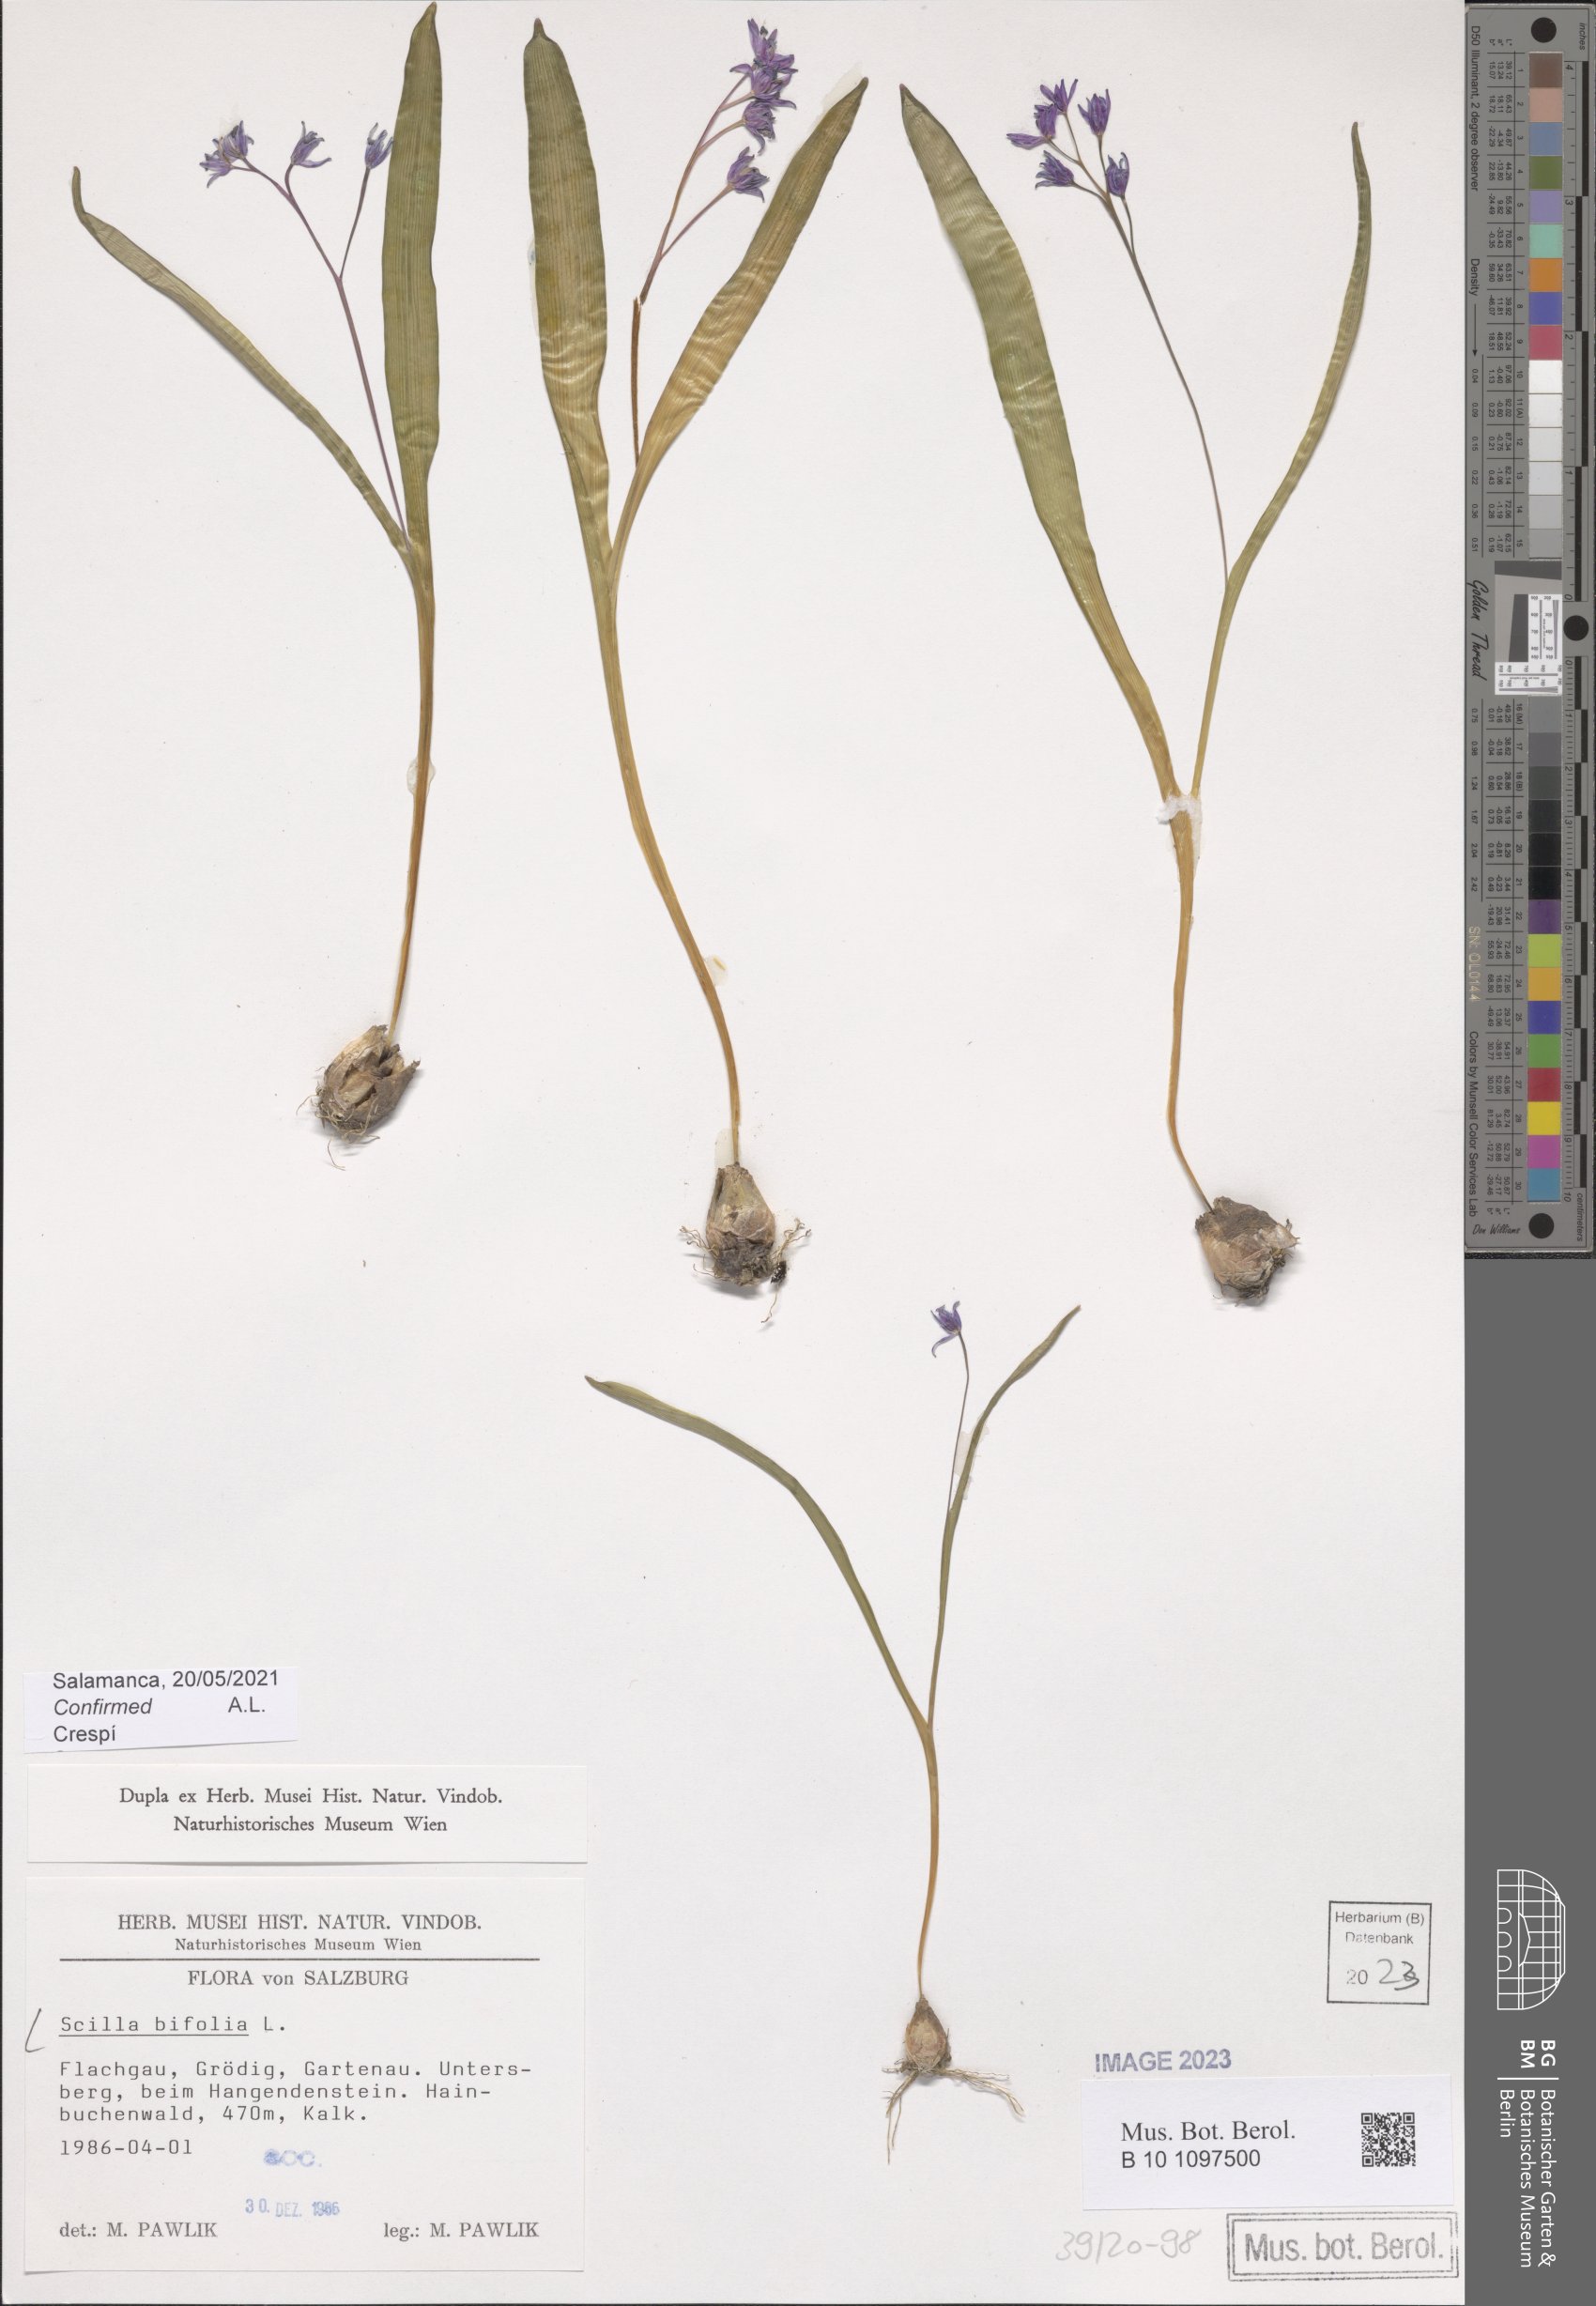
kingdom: Plantae
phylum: Tracheophyta
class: Liliopsida
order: Asparagales
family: Asparagaceae
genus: Scilla
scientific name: Scilla bifolia
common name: Alpine squill
